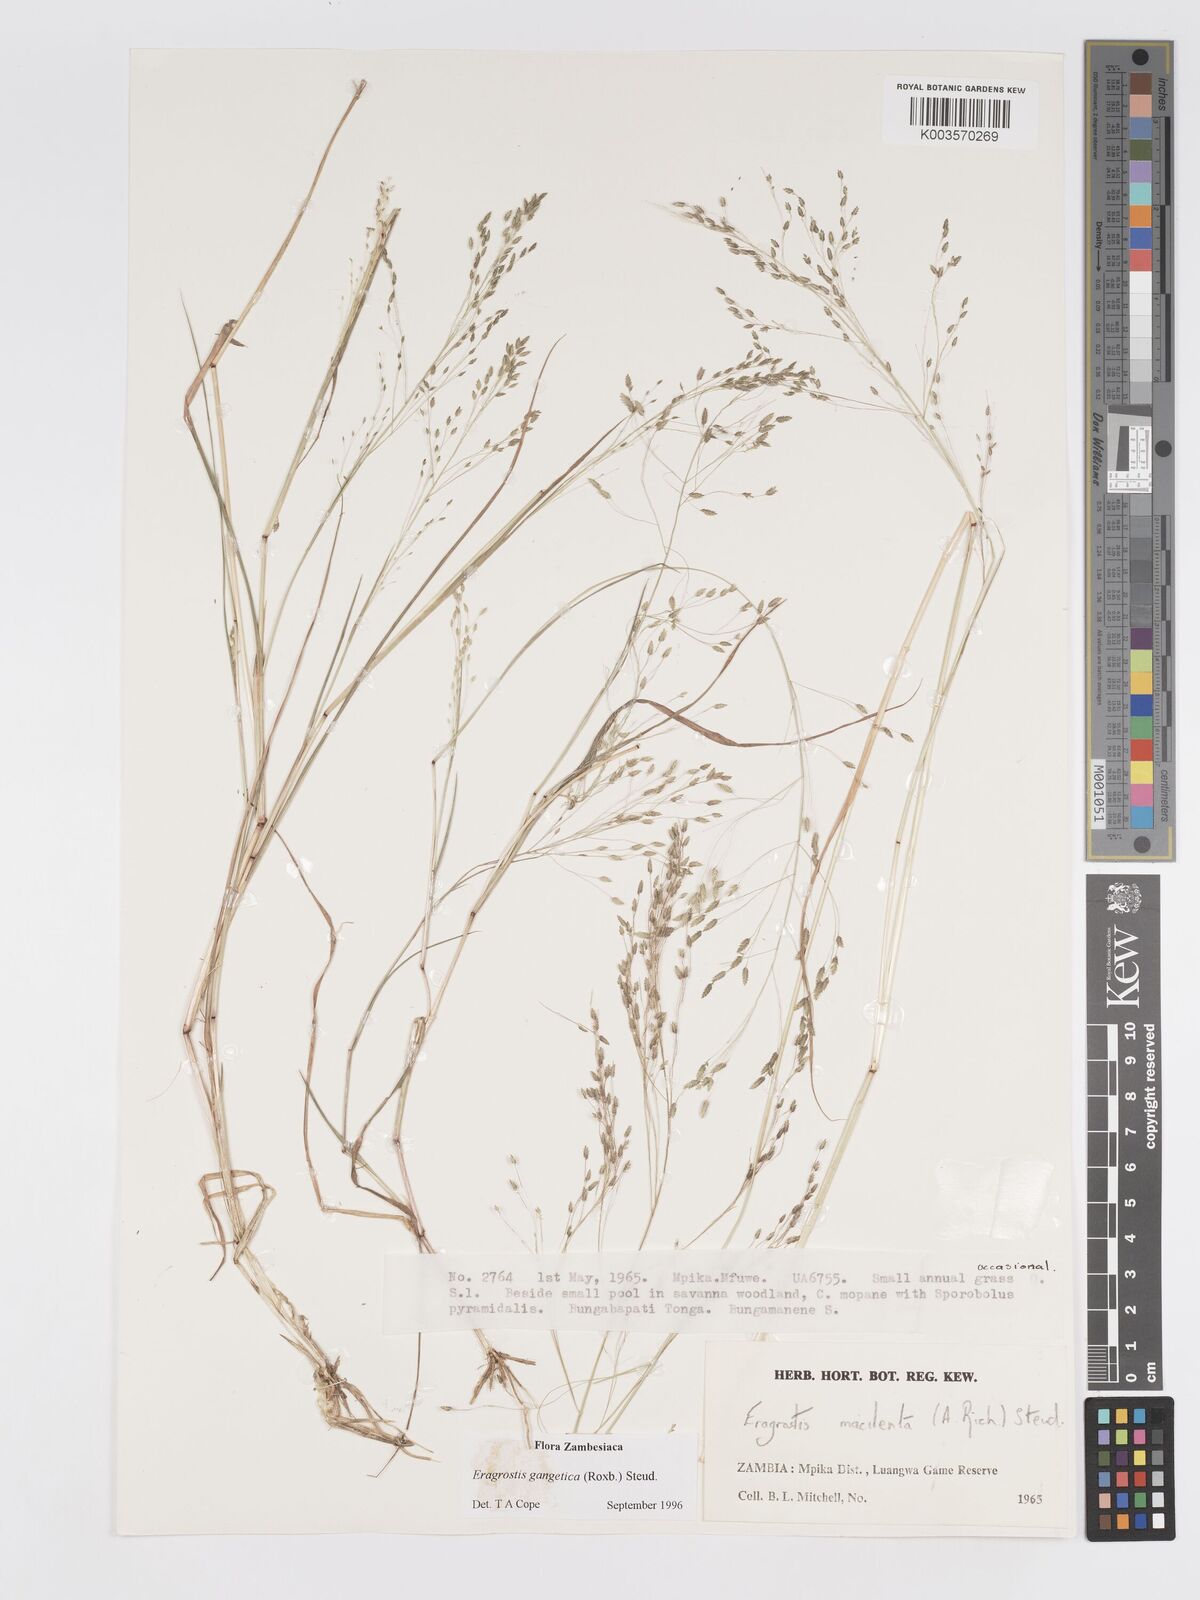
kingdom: Plantae
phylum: Tracheophyta
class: Liliopsida
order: Poales
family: Poaceae
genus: Eragrostis
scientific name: Eragrostis gangetica
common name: Slimflower lovegrass
